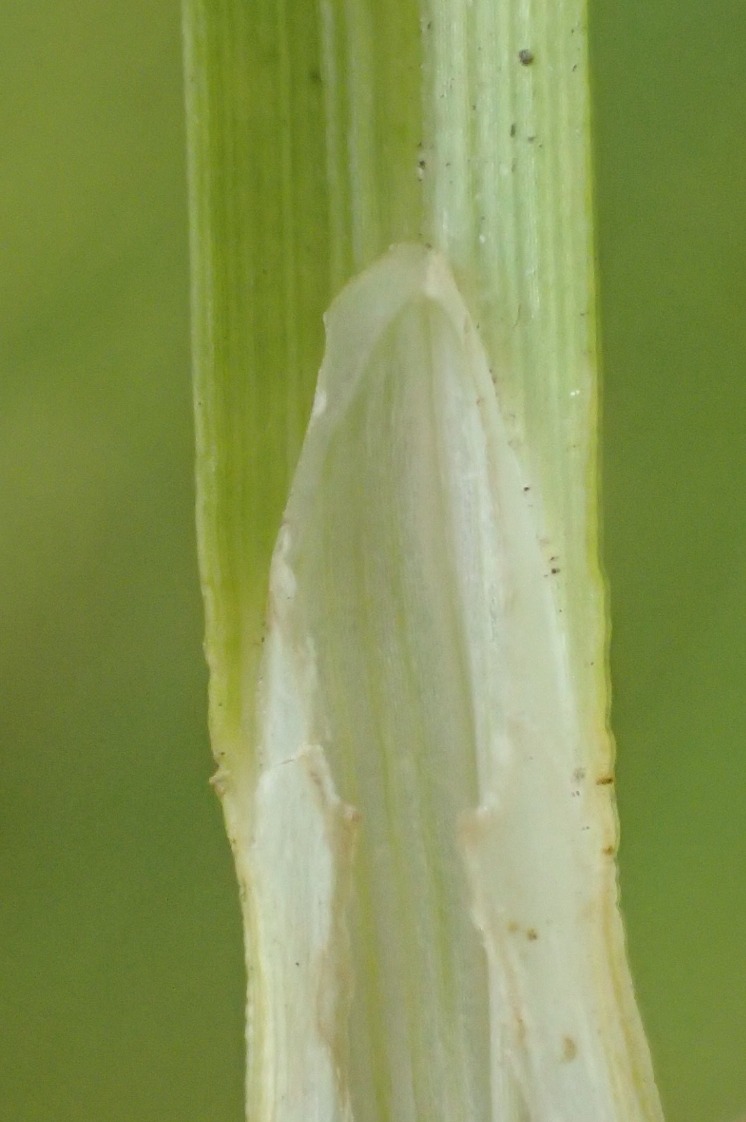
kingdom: Plantae
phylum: Tracheophyta
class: Liliopsida
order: Poales
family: Cyperaceae
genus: Carex
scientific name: Carex leporina
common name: Hare-star
